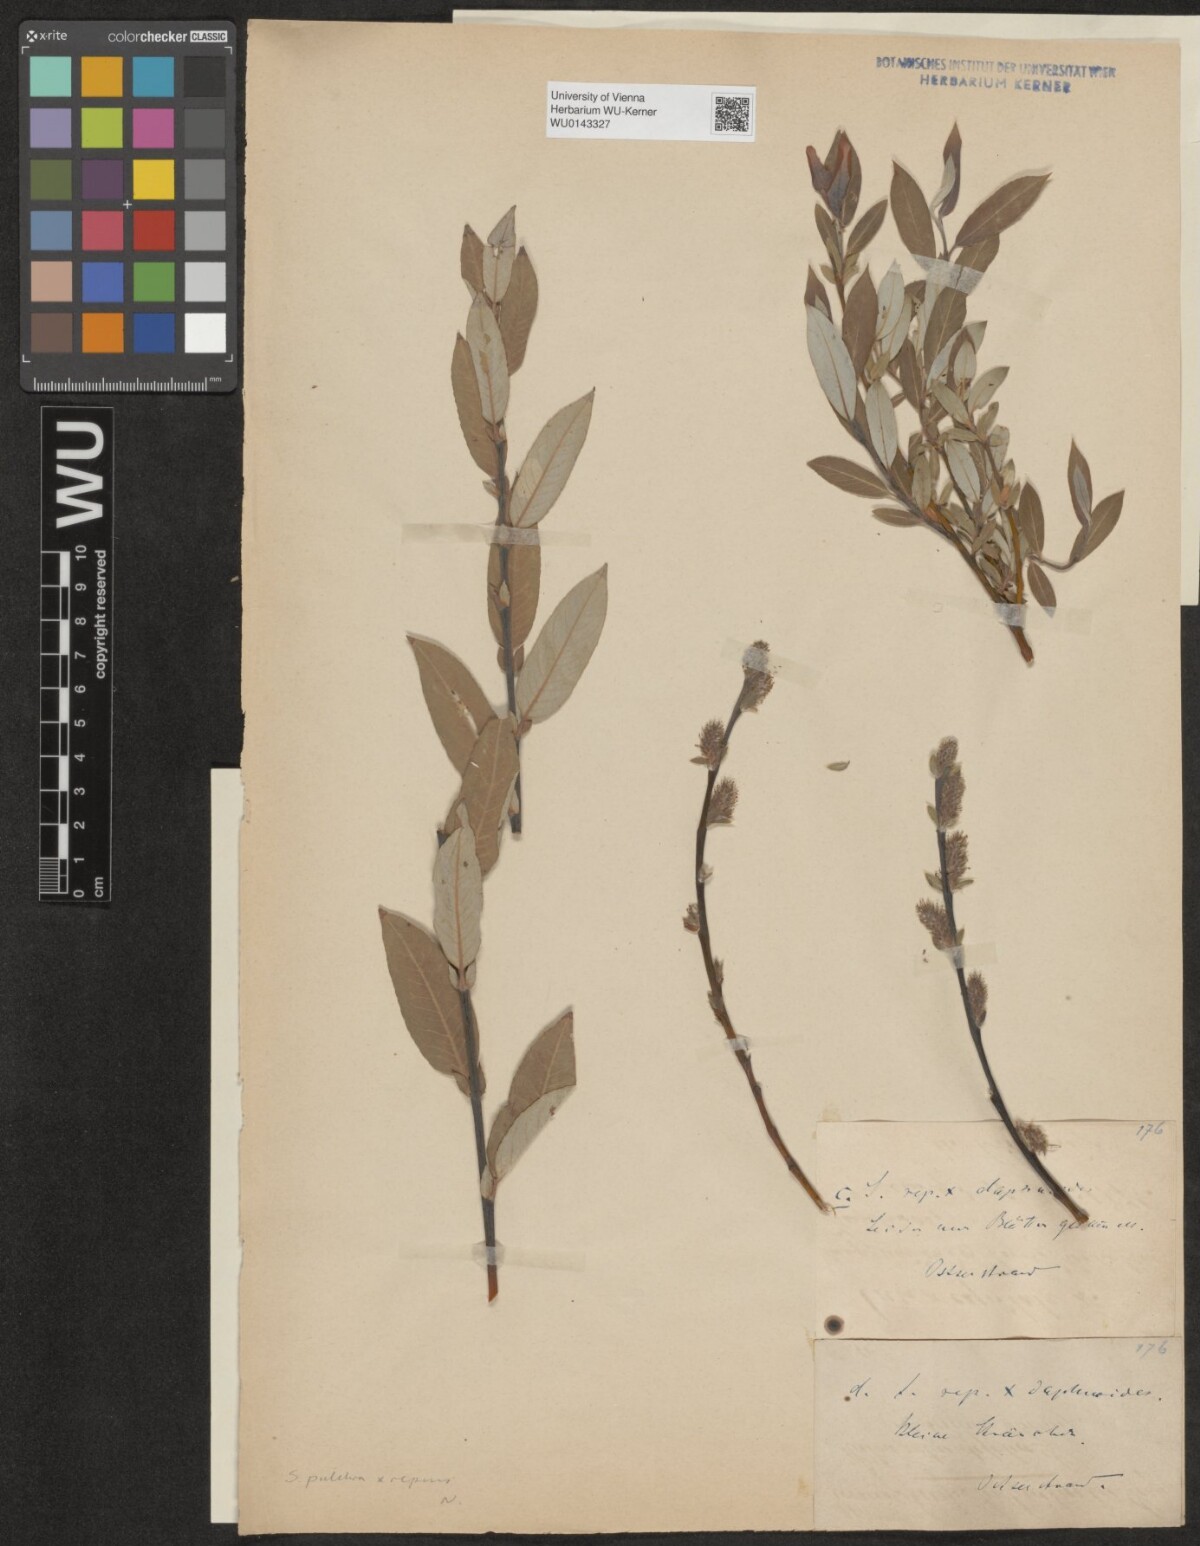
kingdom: Plantae
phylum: Tracheophyta
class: Magnoliopsida
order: Malpighiales
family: Salicaceae
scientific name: Salicaceae
